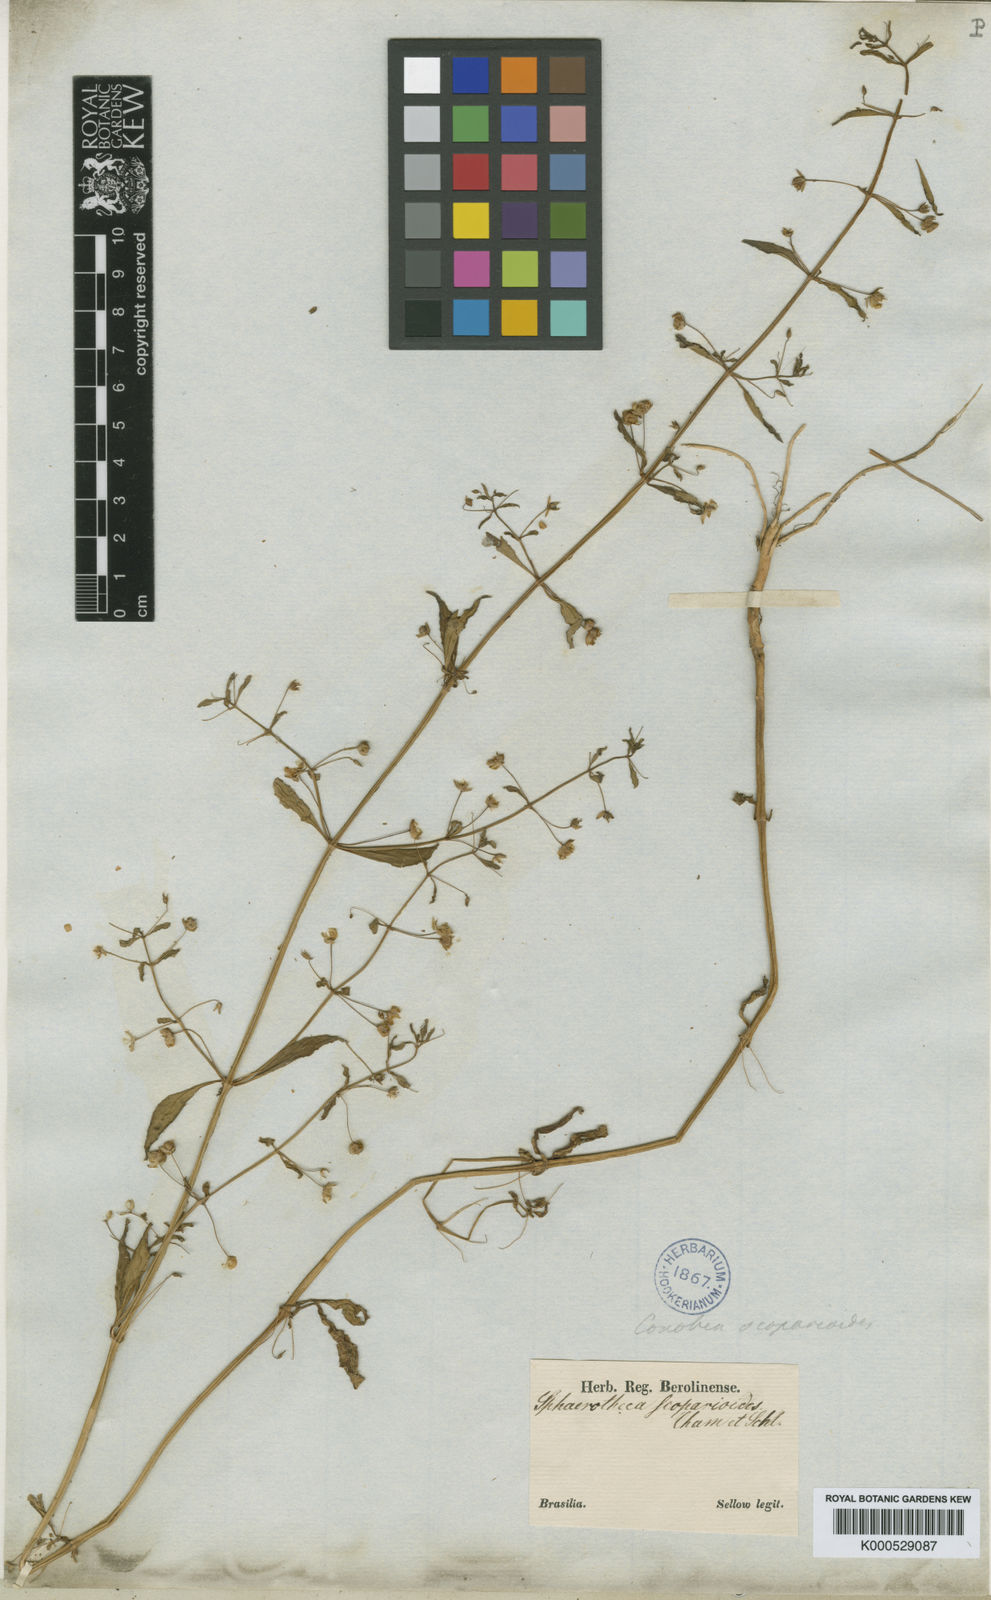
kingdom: Plantae
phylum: Tracheophyta
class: Magnoliopsida
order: Lamiales
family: Plantaginaceae
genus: Conobea
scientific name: Conobea scoparioides
